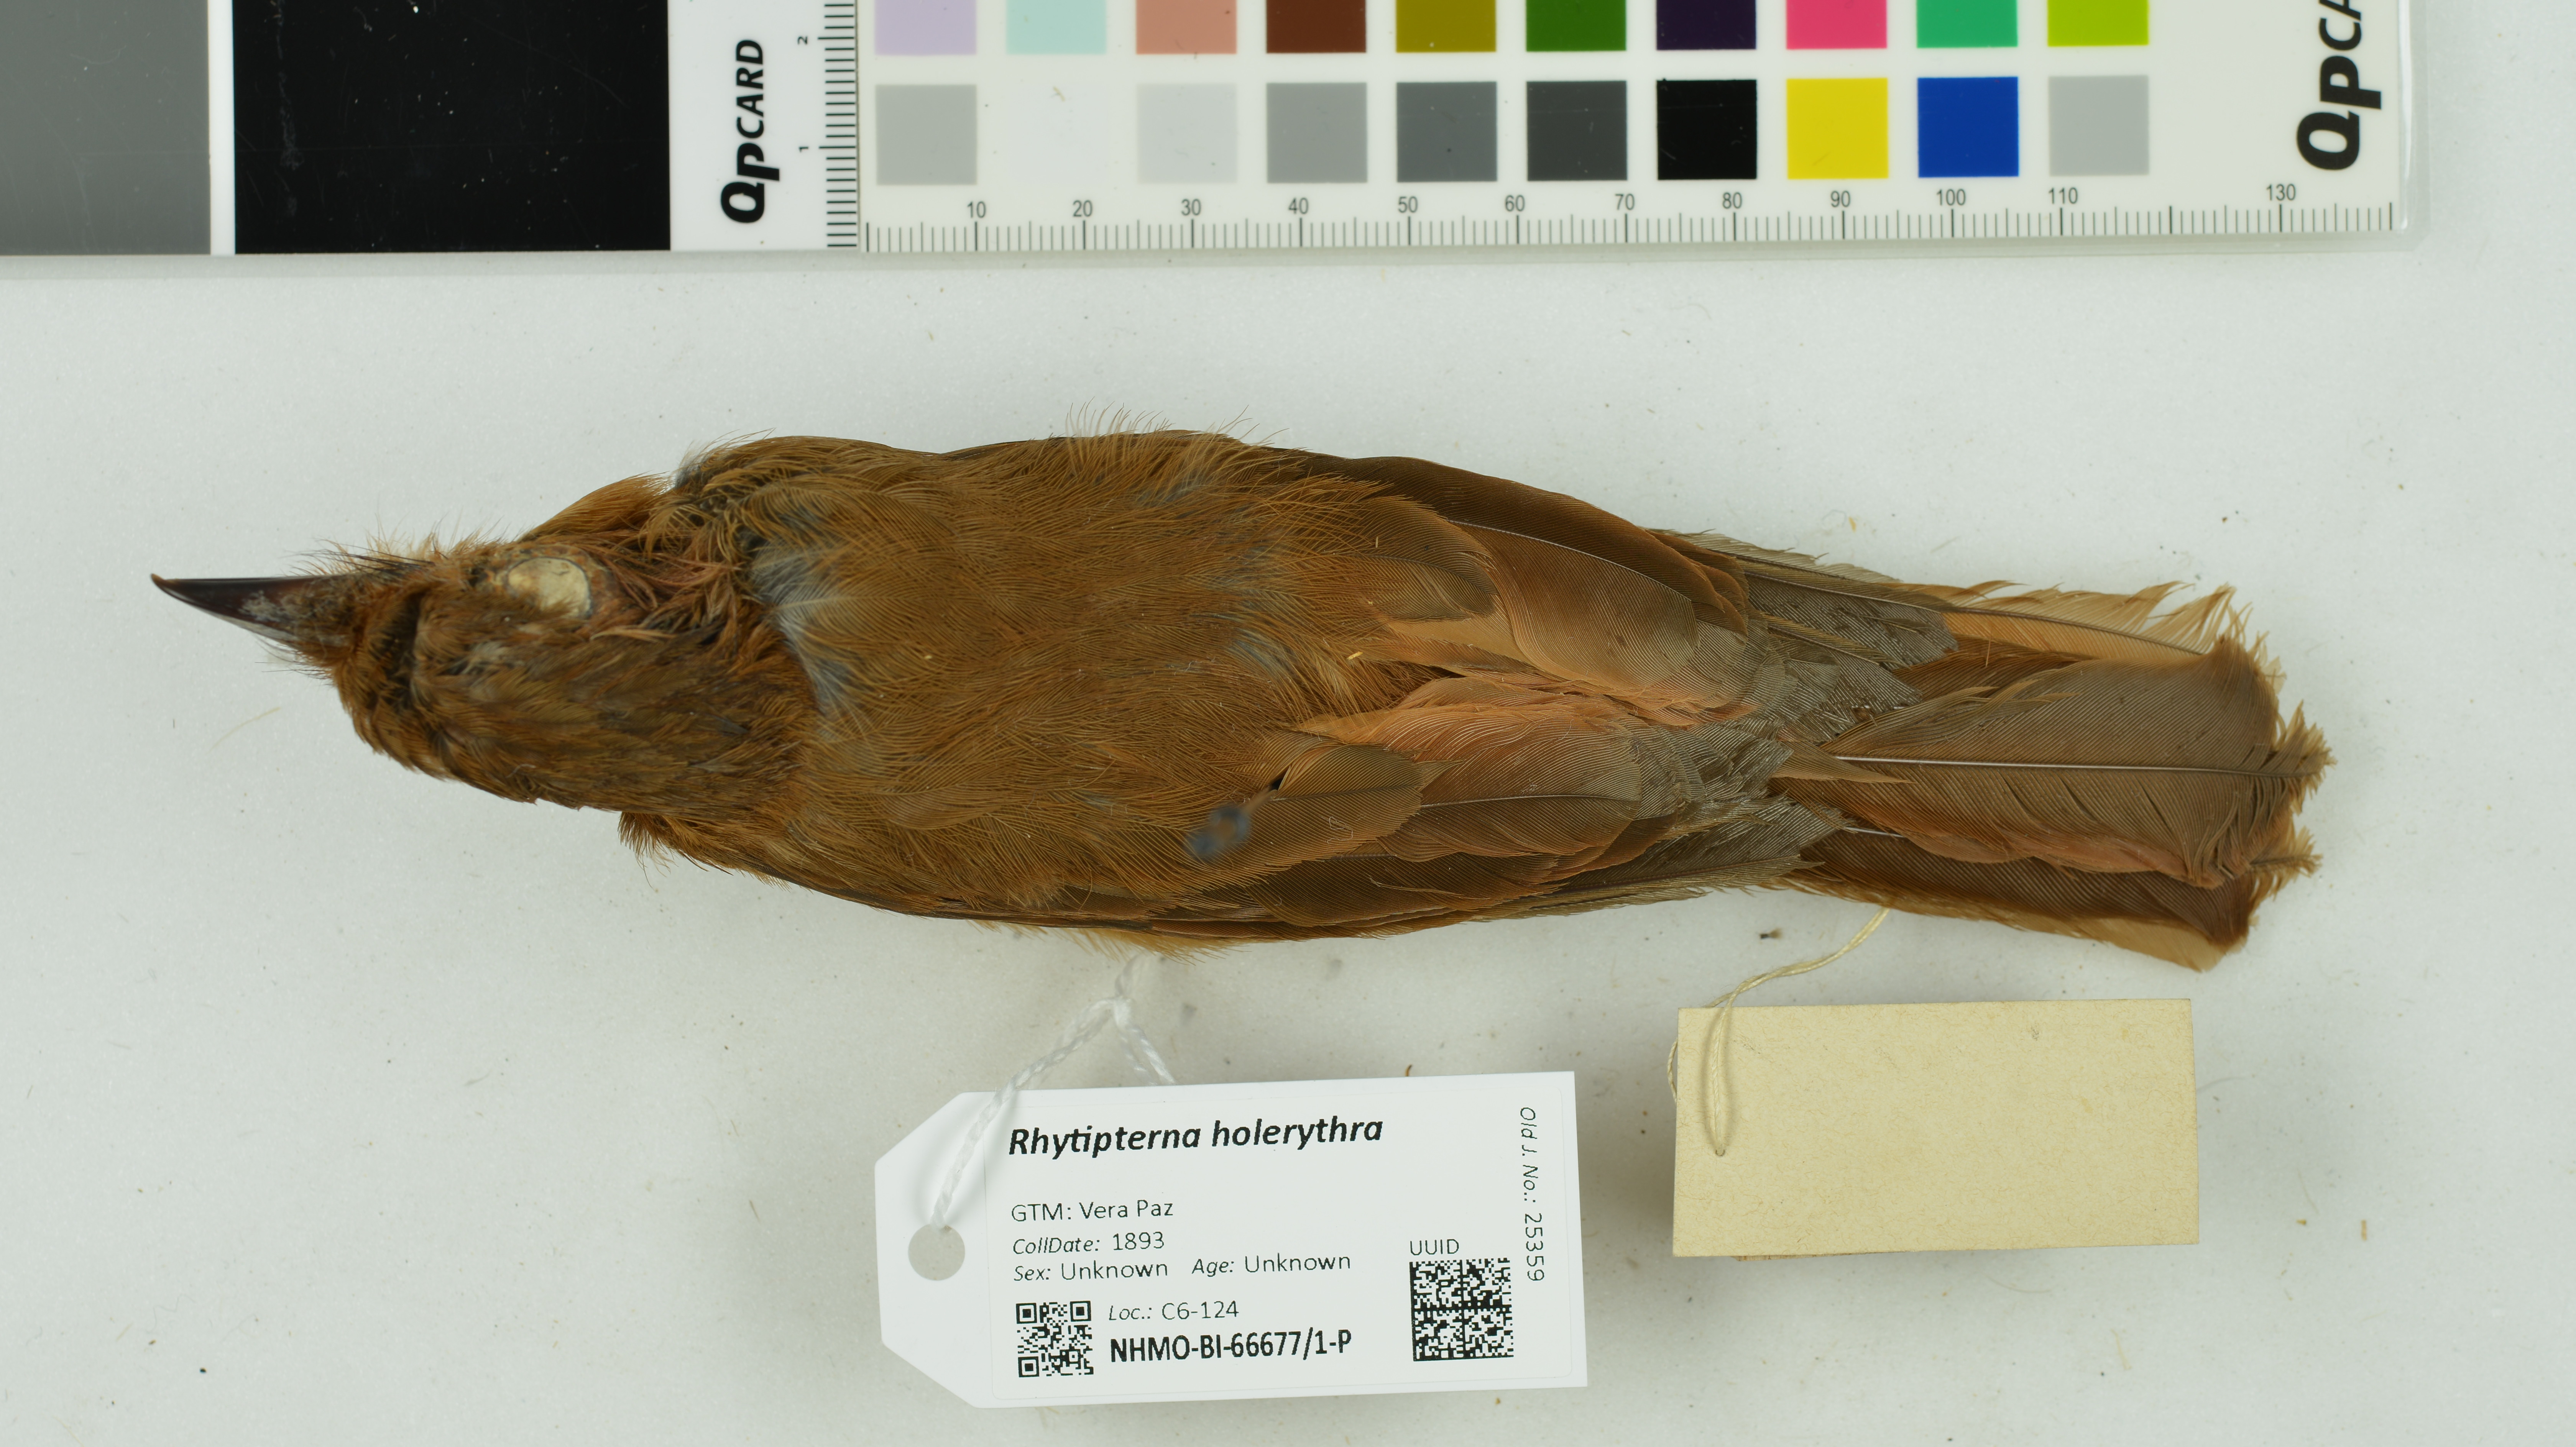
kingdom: Animalia
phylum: Chordata
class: Aves
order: Passeriformes
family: Tyrannidae
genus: Rhytipterna
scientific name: Rhytipterna holerythra
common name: Rufous mourner
